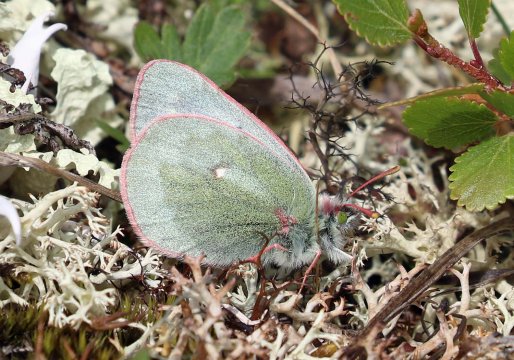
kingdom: Animalia
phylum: Arthropoda
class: Insecta
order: Lepidoptera
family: Pieridae
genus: Colias
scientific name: Colias nastes
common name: Labrador Sulphur
